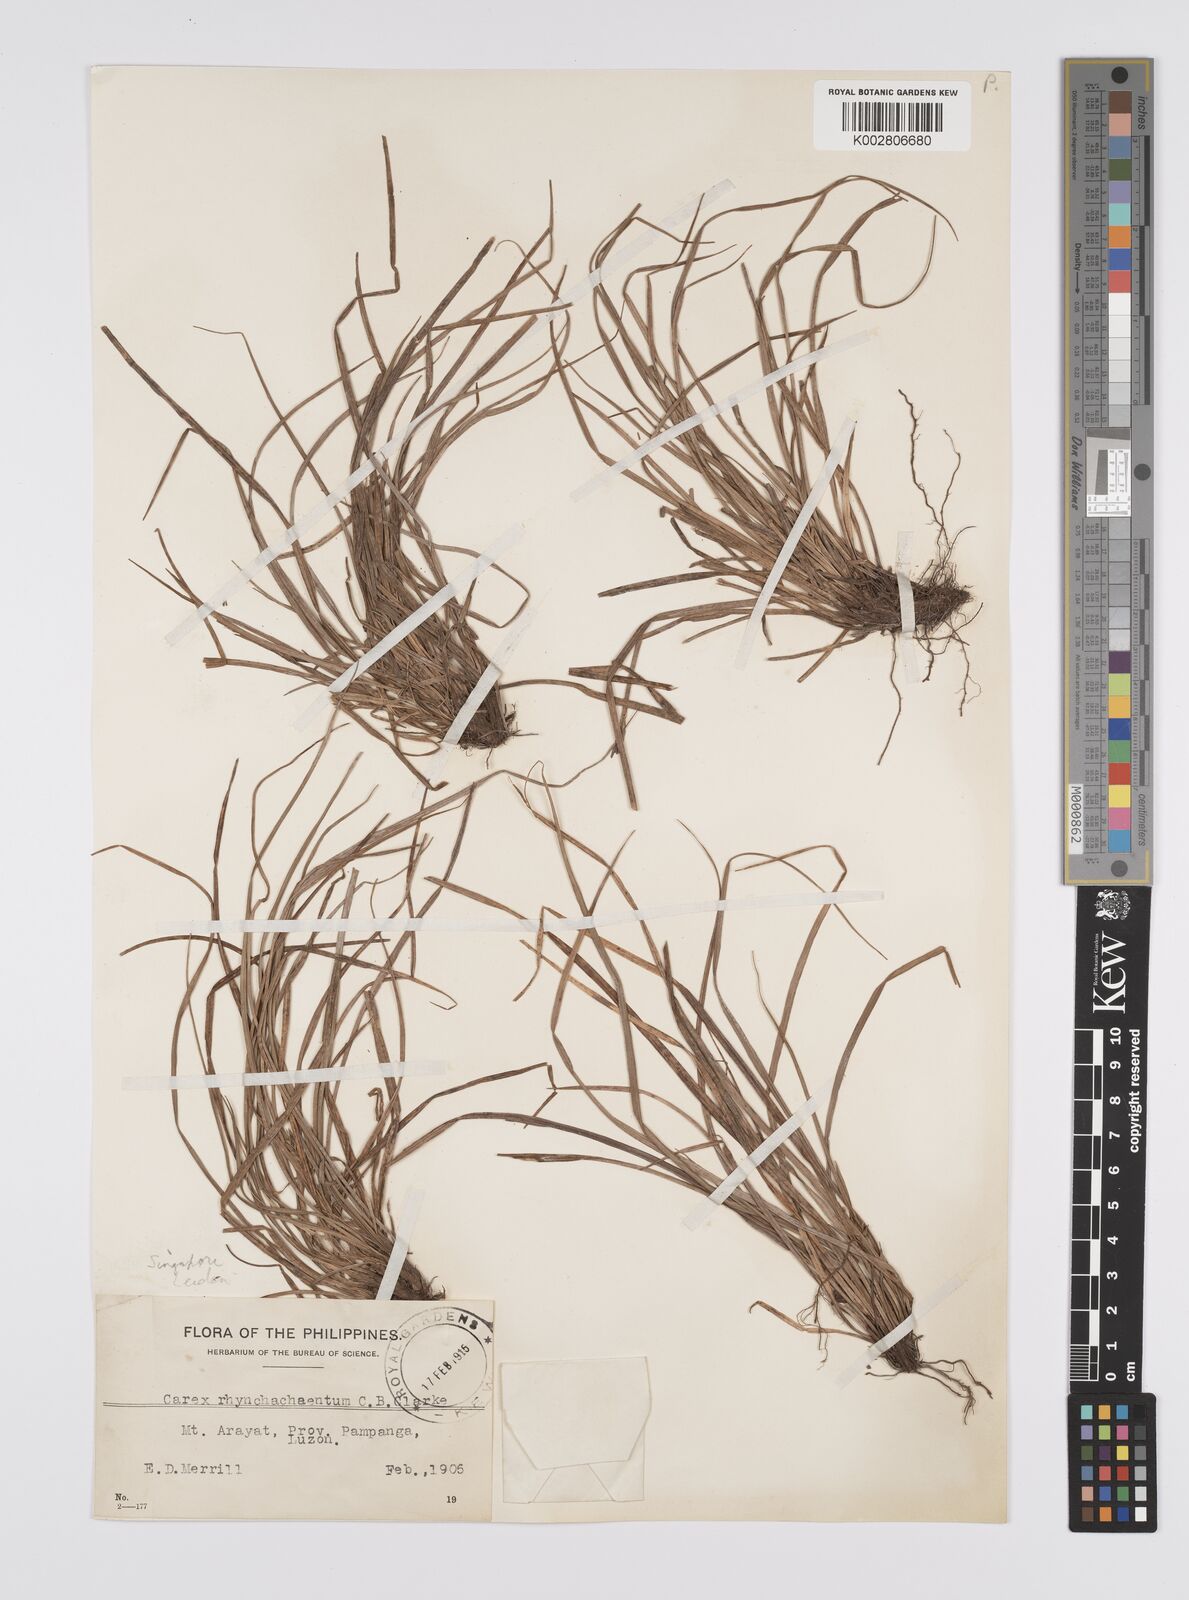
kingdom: Plantae
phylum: Tracheophyta
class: Liliopsida
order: Poales
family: Cyperaceae
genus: Carex
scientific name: Carex rhynchachaenium
